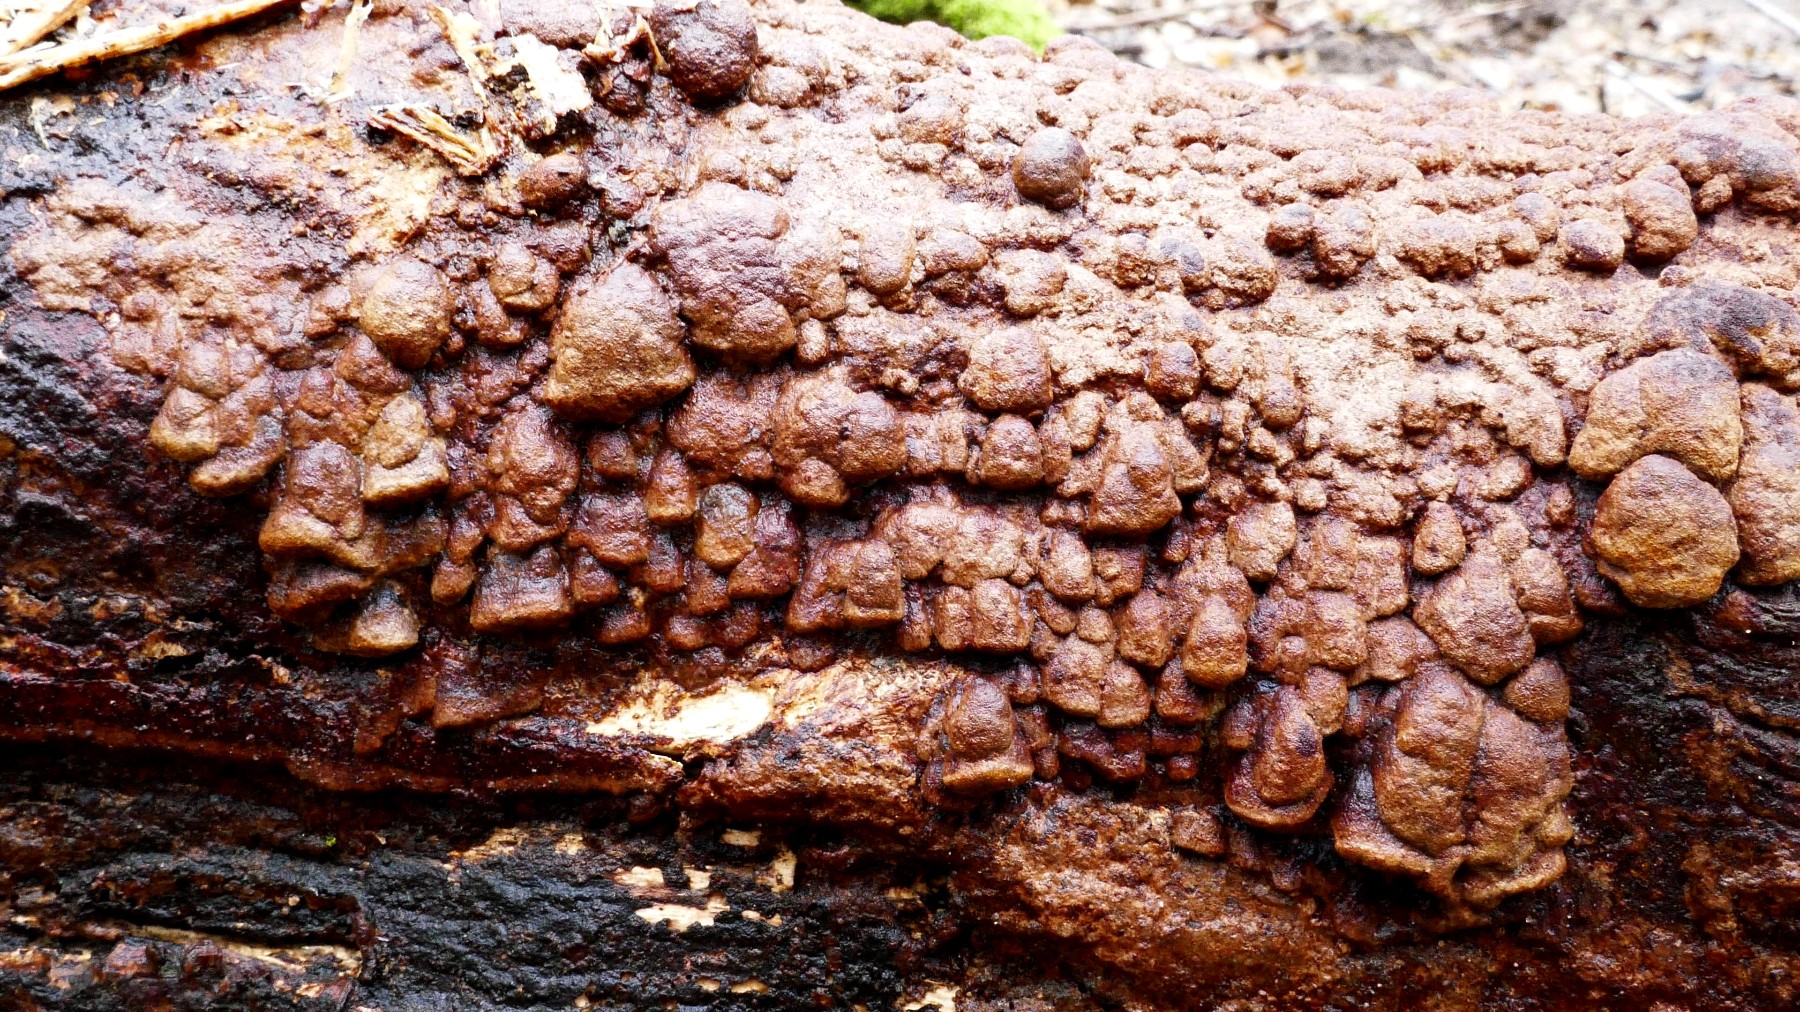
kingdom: Fungi
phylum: Basidiomycota
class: Agaricomycetes
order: Hymenochaetales
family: Hymenochaetaceae
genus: Fuscoporia
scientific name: Fuscoporia ferrea
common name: skorpe-ildporesvamp
